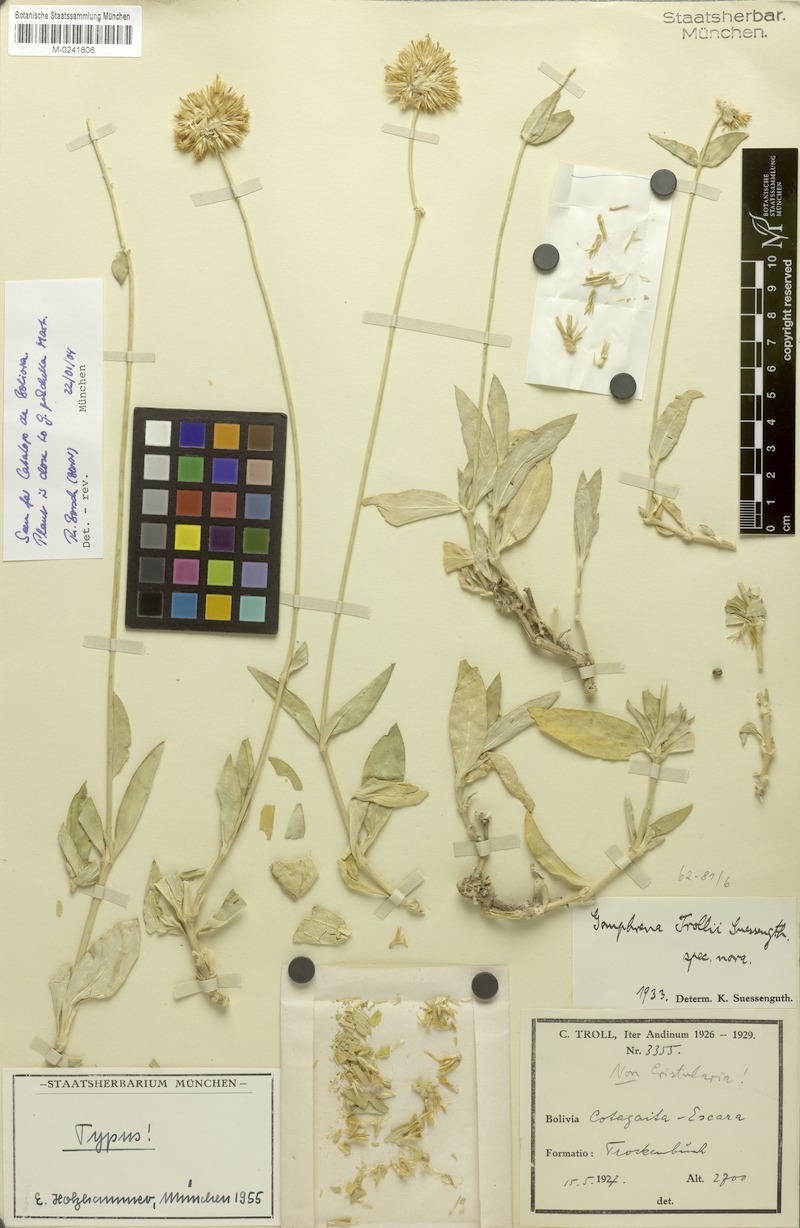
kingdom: Plantae
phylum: Tracheophyta
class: Magnoliopsida
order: Caryophyllales
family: Amaranthaceae
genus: Gomphrena
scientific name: Gomphrena trollii
